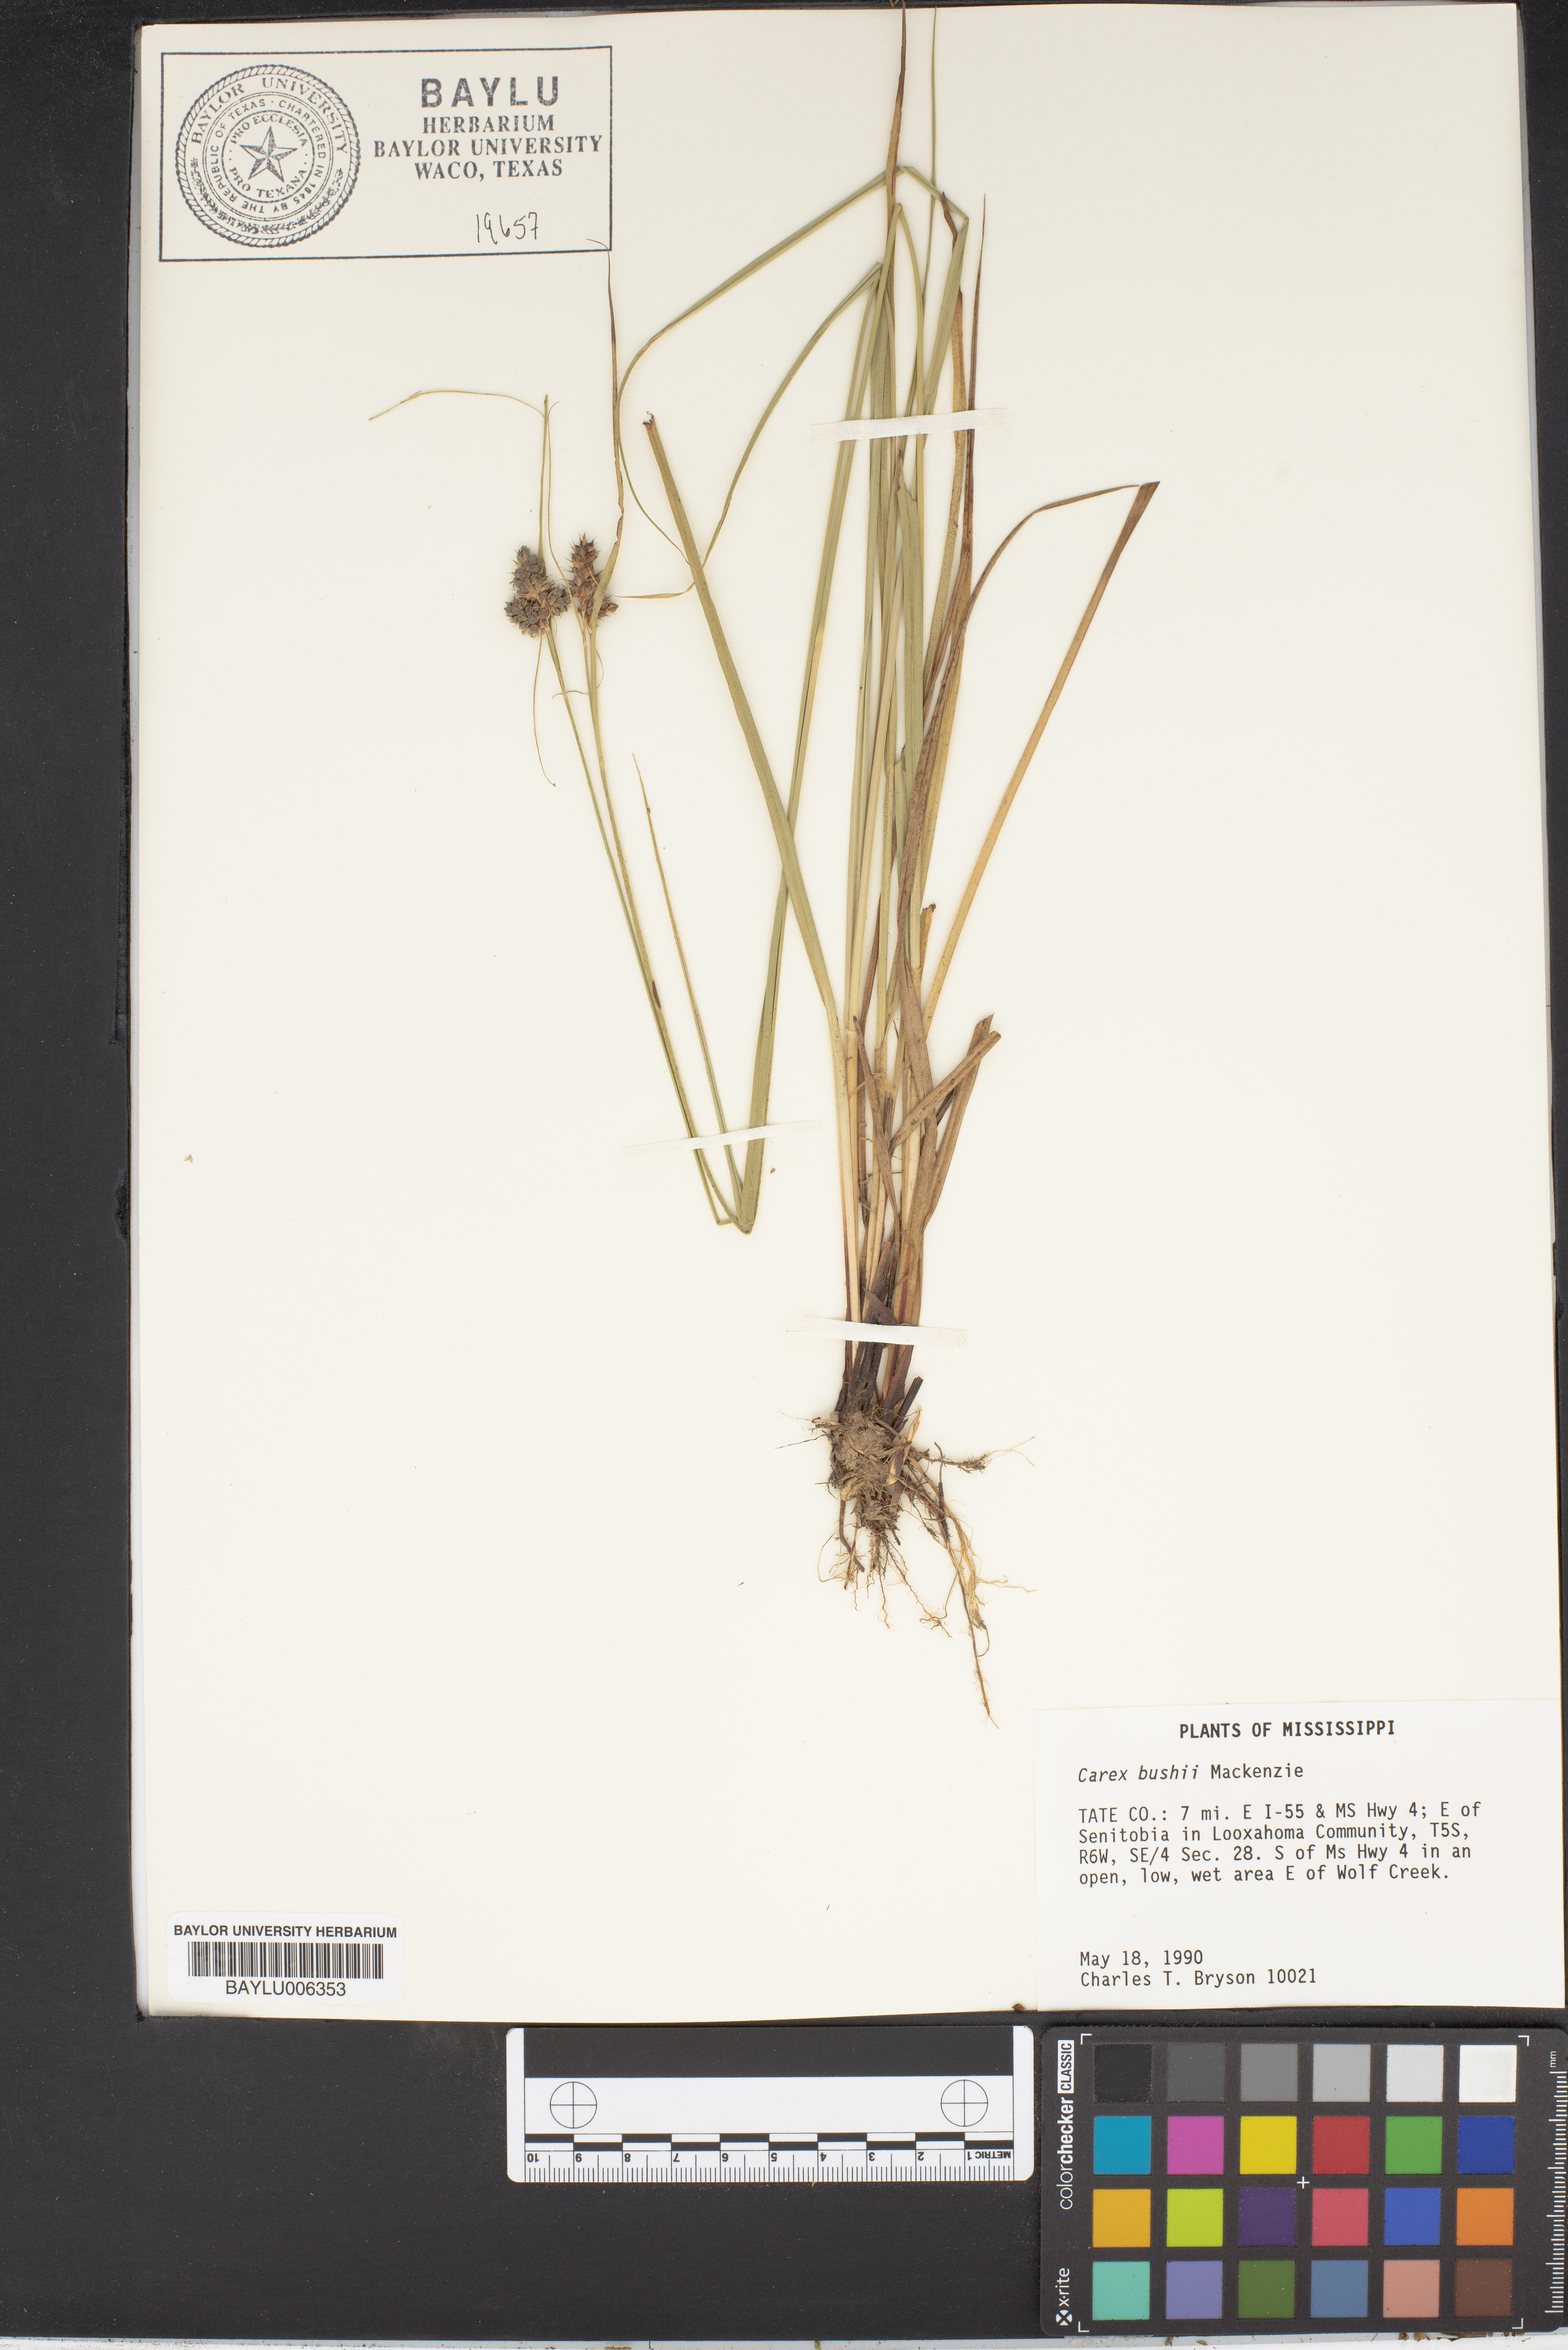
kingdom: Plantae
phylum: Tracheophyta
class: Liliopsida
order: Poales
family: Cyperaceae
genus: Carex
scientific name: Carex bushii
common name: Bush's sedge
